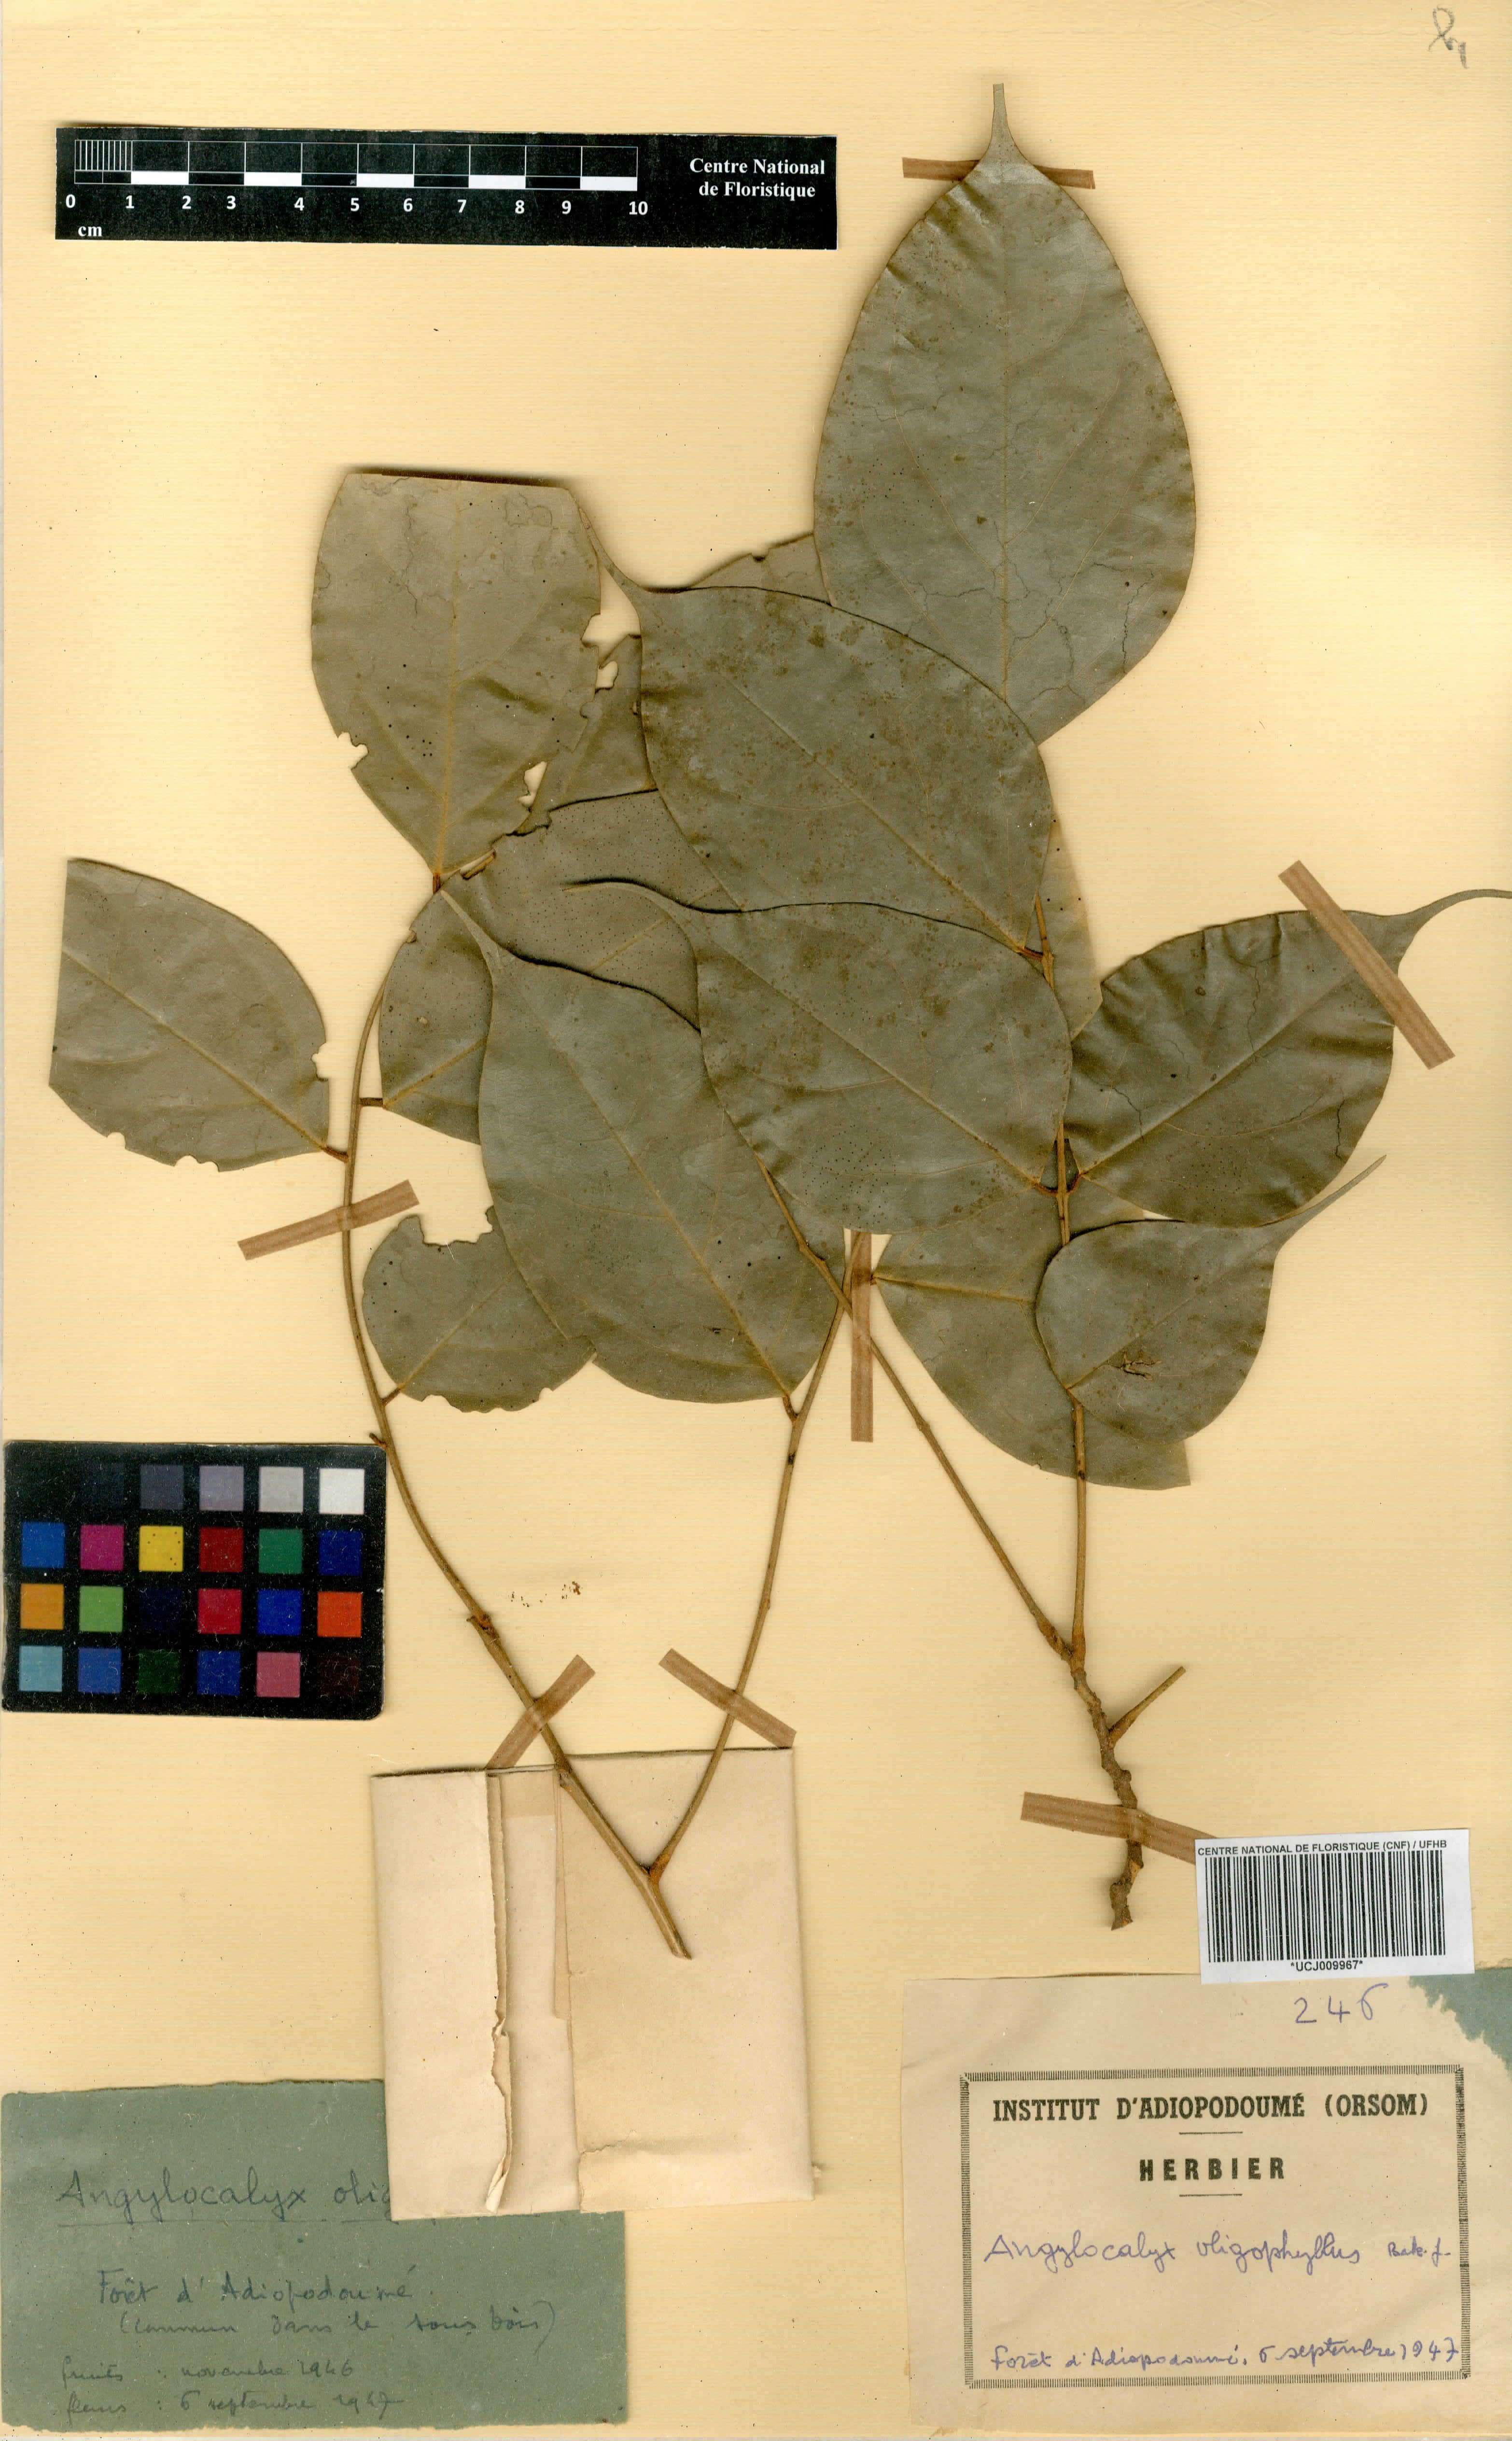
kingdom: Plantae
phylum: Tracheophyta
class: Magnoliopsida
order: Fabales
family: Fabaceae
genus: Angylocalyx
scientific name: Angylocalyx oligophyllus
